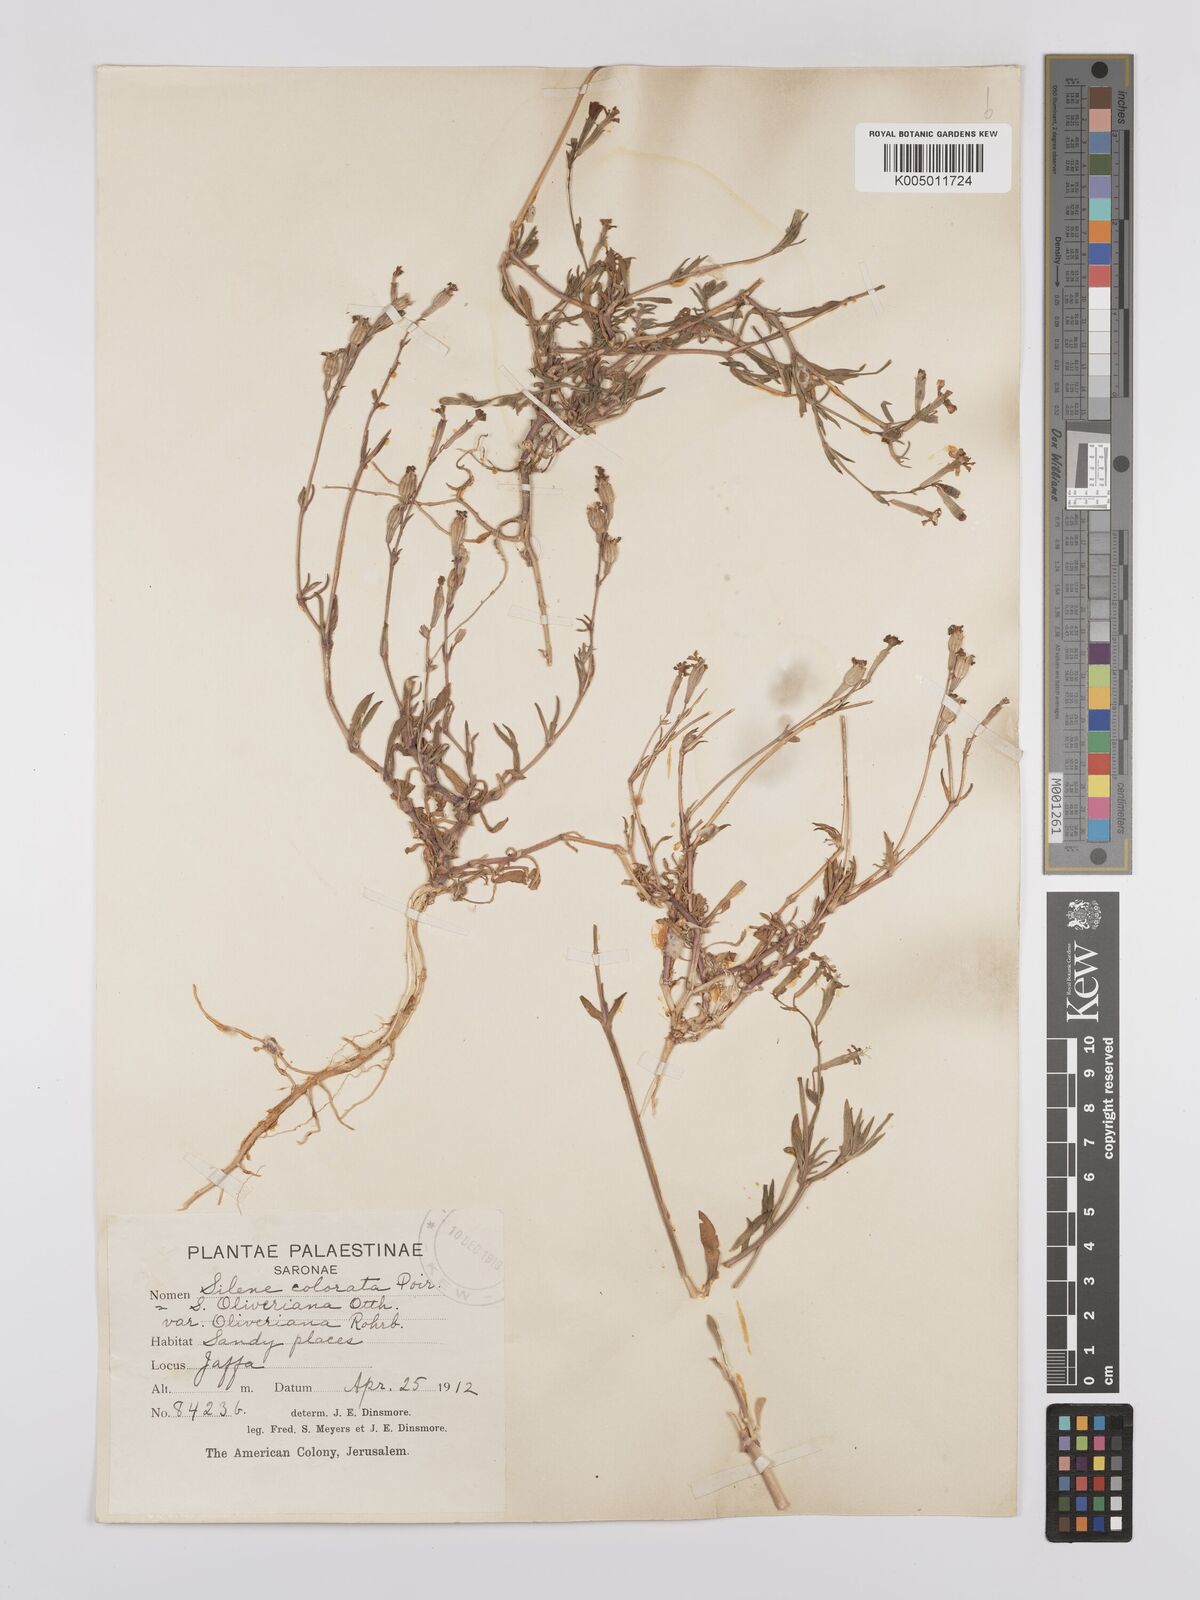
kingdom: Plantae
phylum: Tracheophyta
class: Magnoliopsida
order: Caryophyllales
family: Caryophyllaceae
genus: Silene
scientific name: Silene oliveriana
